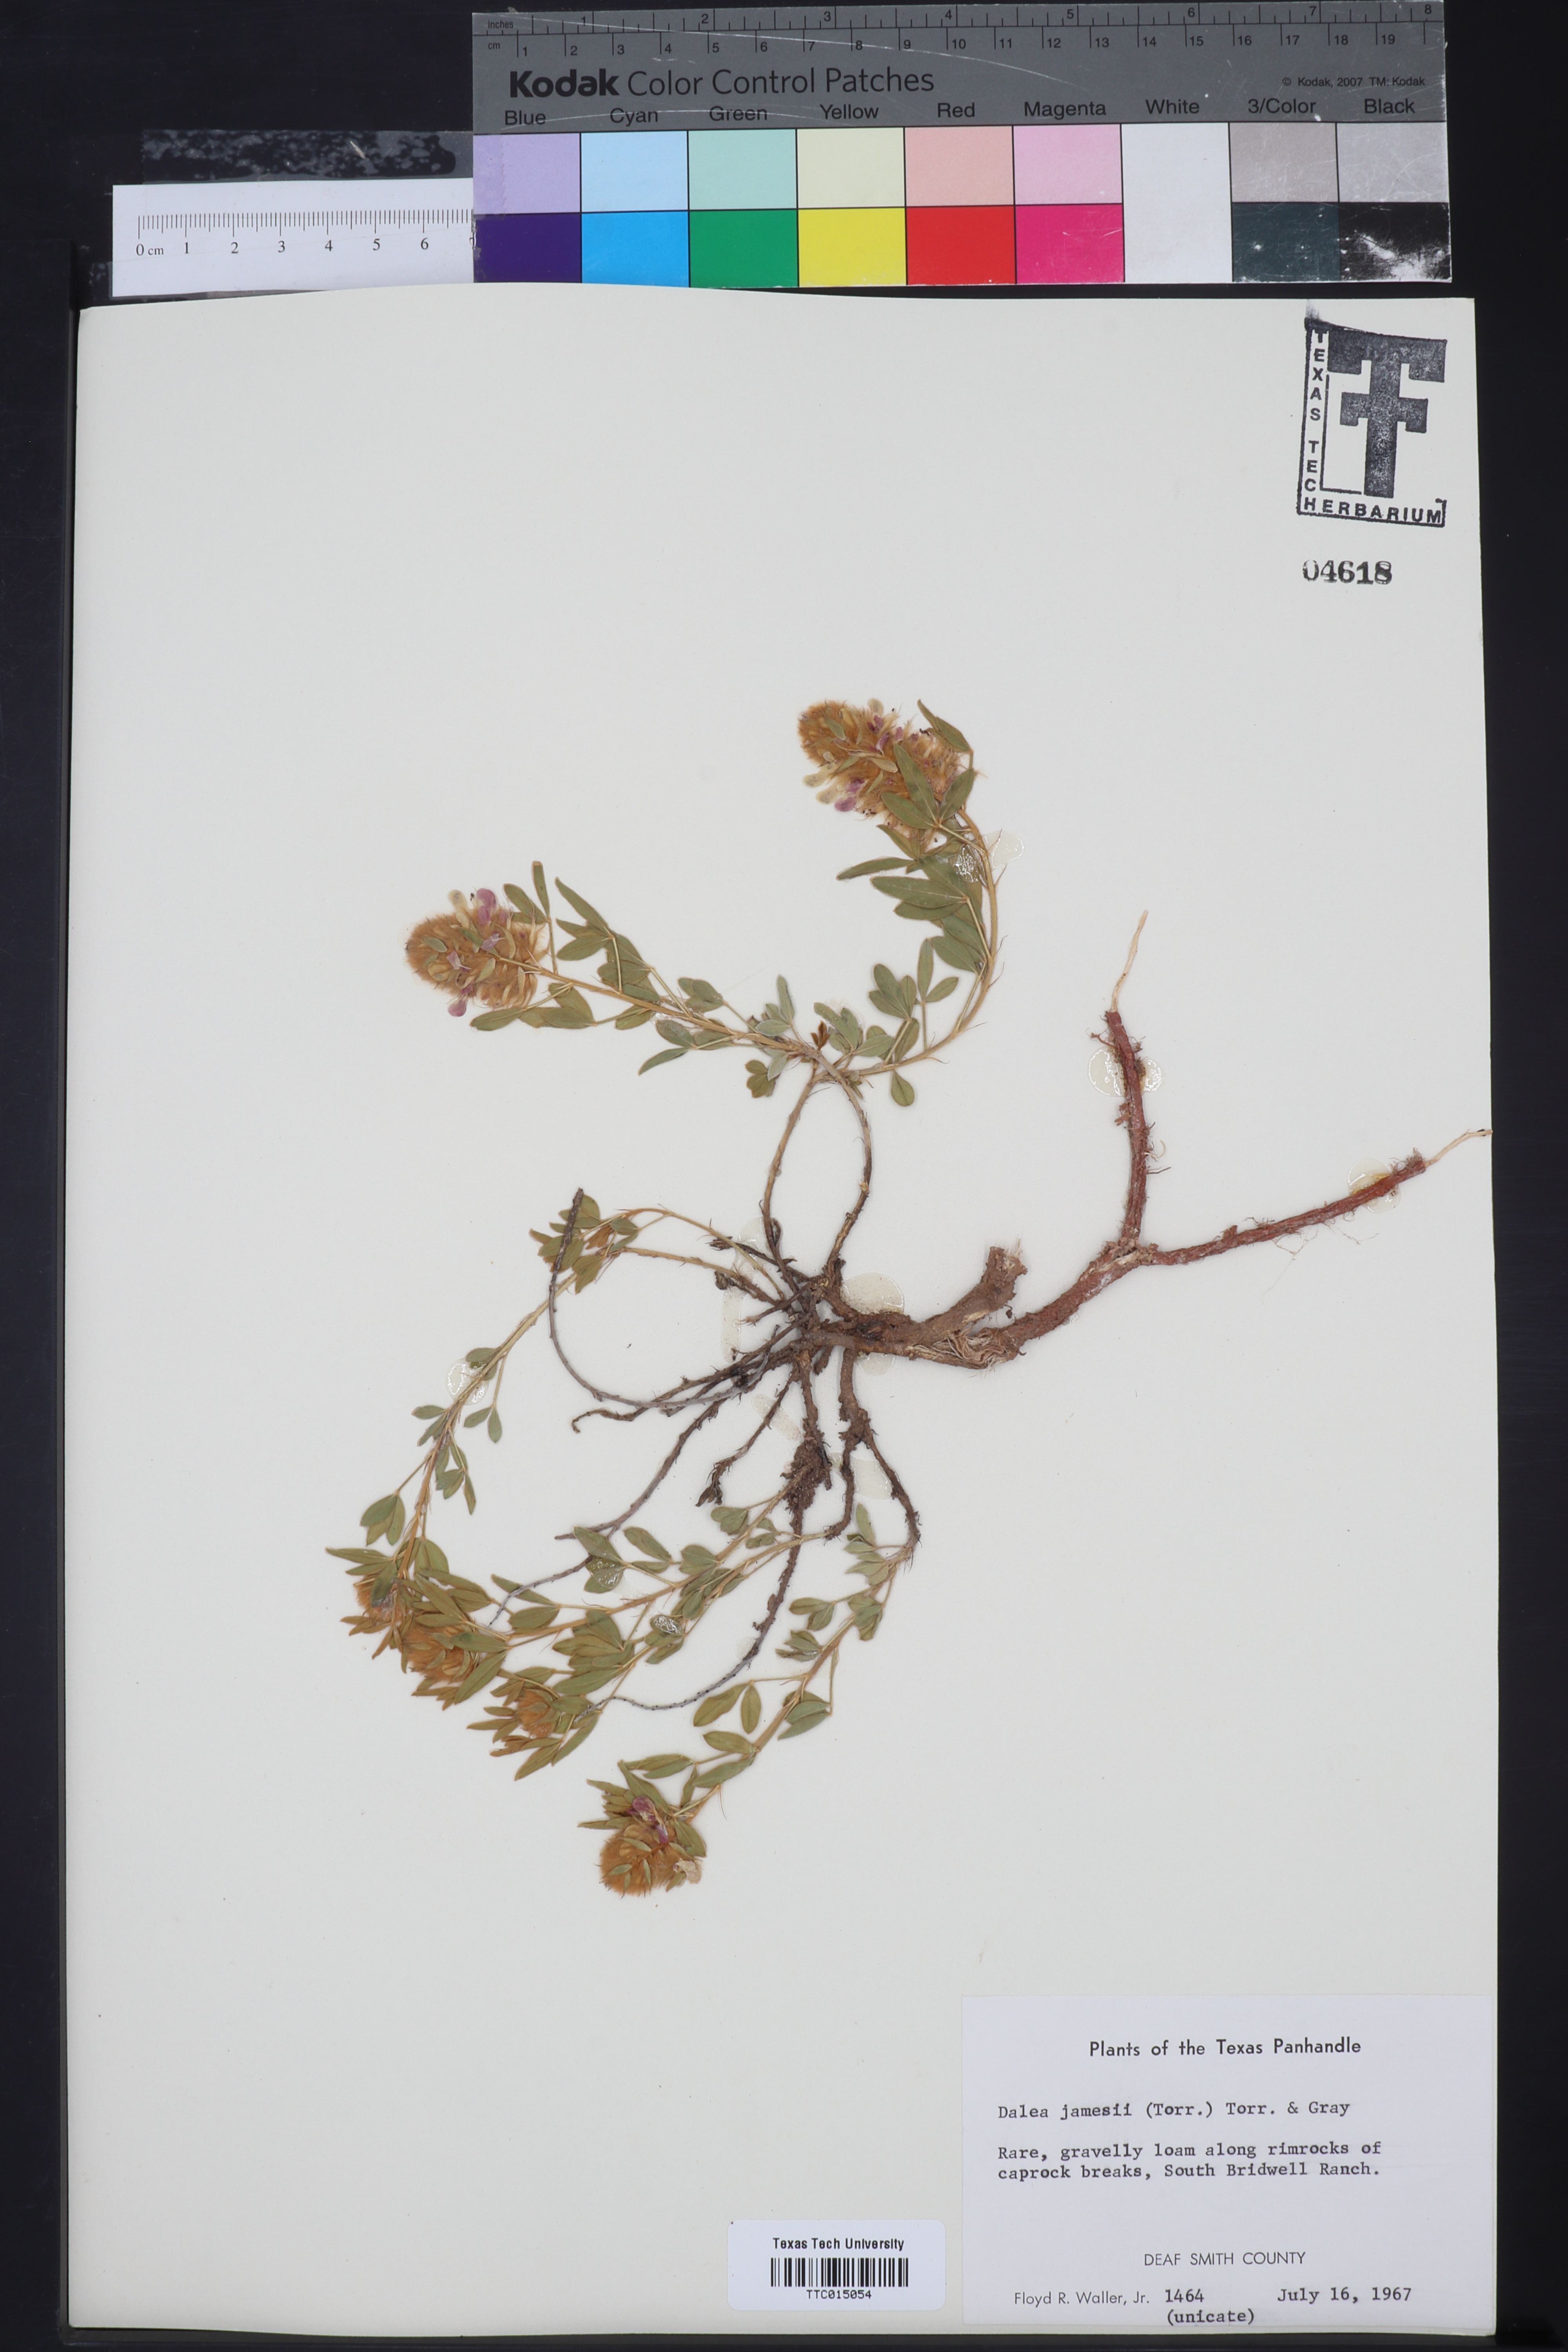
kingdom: Plantae
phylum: Tracheophyta
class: Magnoliopsida
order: Fabales
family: Fabaceae
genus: Dalea
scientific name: Dalea jamesii
